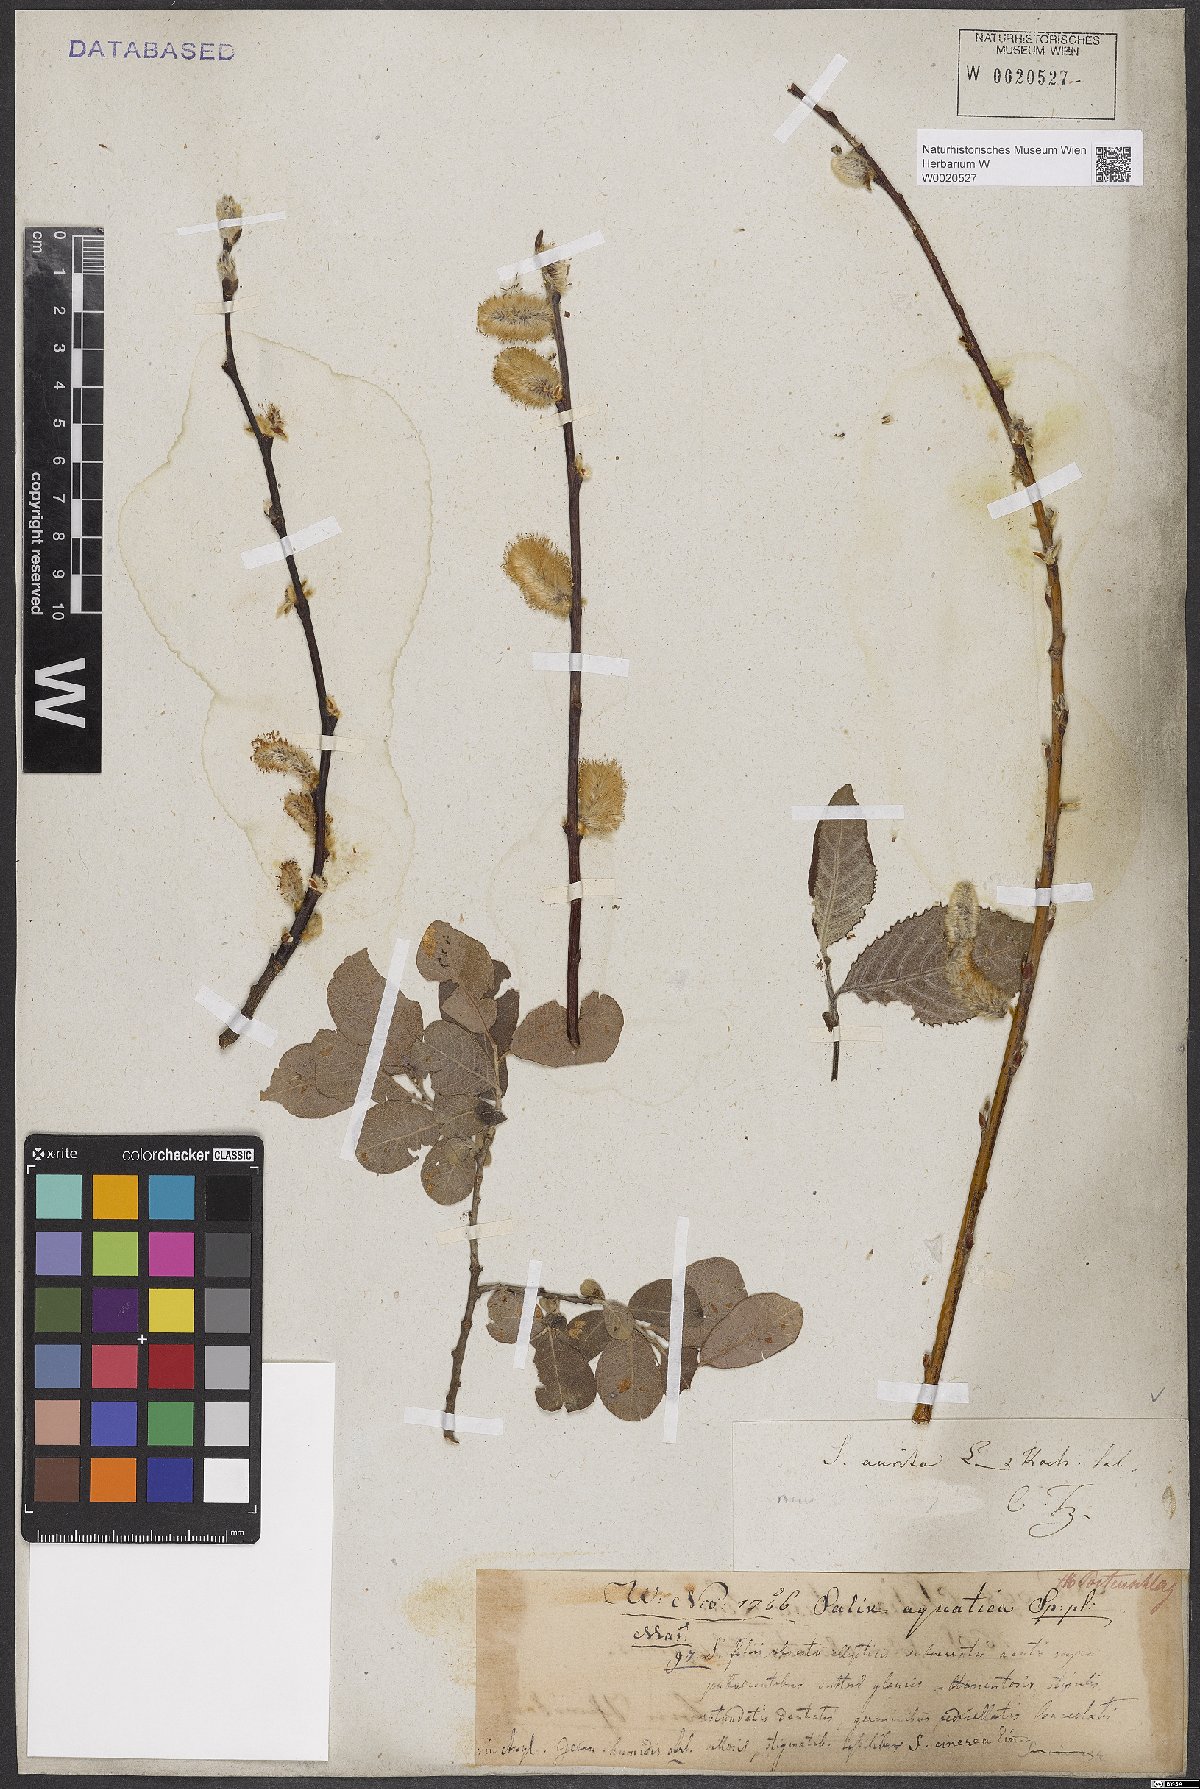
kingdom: Plantae
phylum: Tracheophyta
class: Magnoliopsida
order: Malpighiales
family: Salicaceae
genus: Salix
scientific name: Salix aurita
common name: Eared willow
